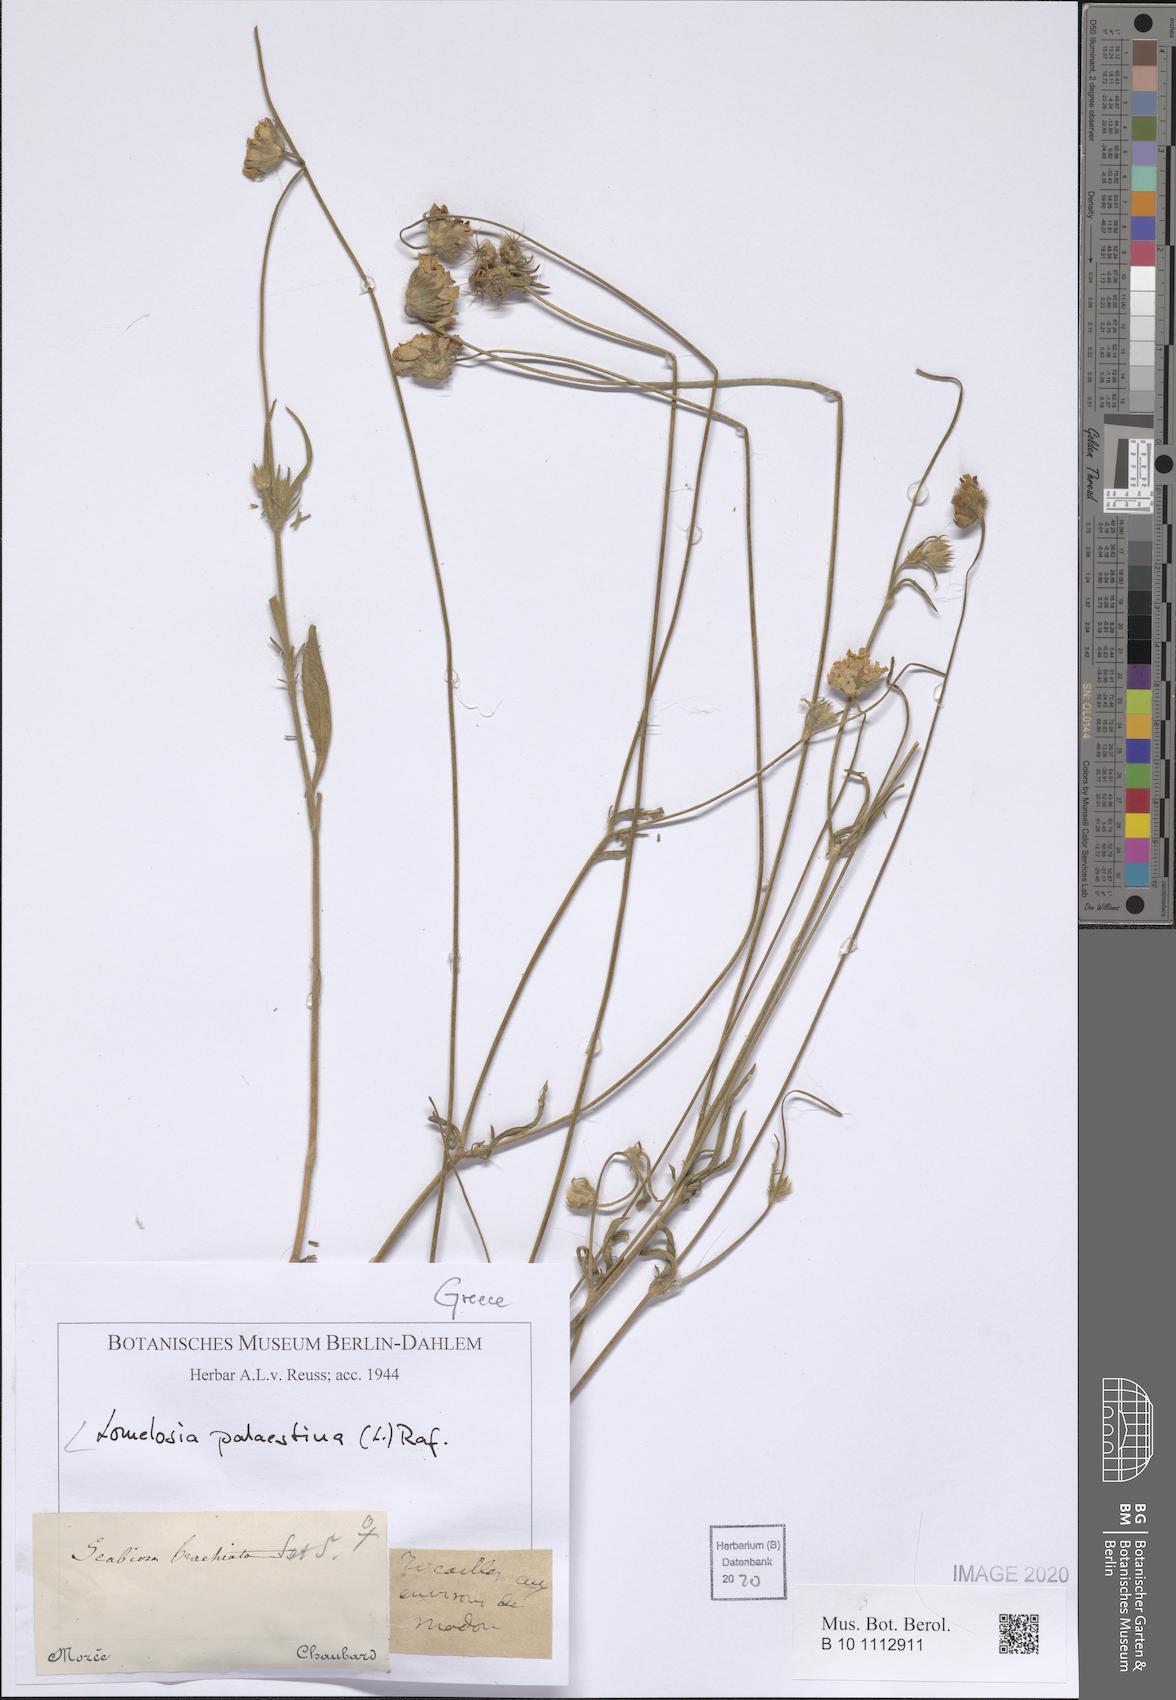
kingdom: Plantae
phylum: Tracheophyta
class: Magnoliopsida
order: Dipsacales
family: Caprifoliaceae
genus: Lomelosia
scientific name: Lomelosia palaestina
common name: Balkan pincushions
